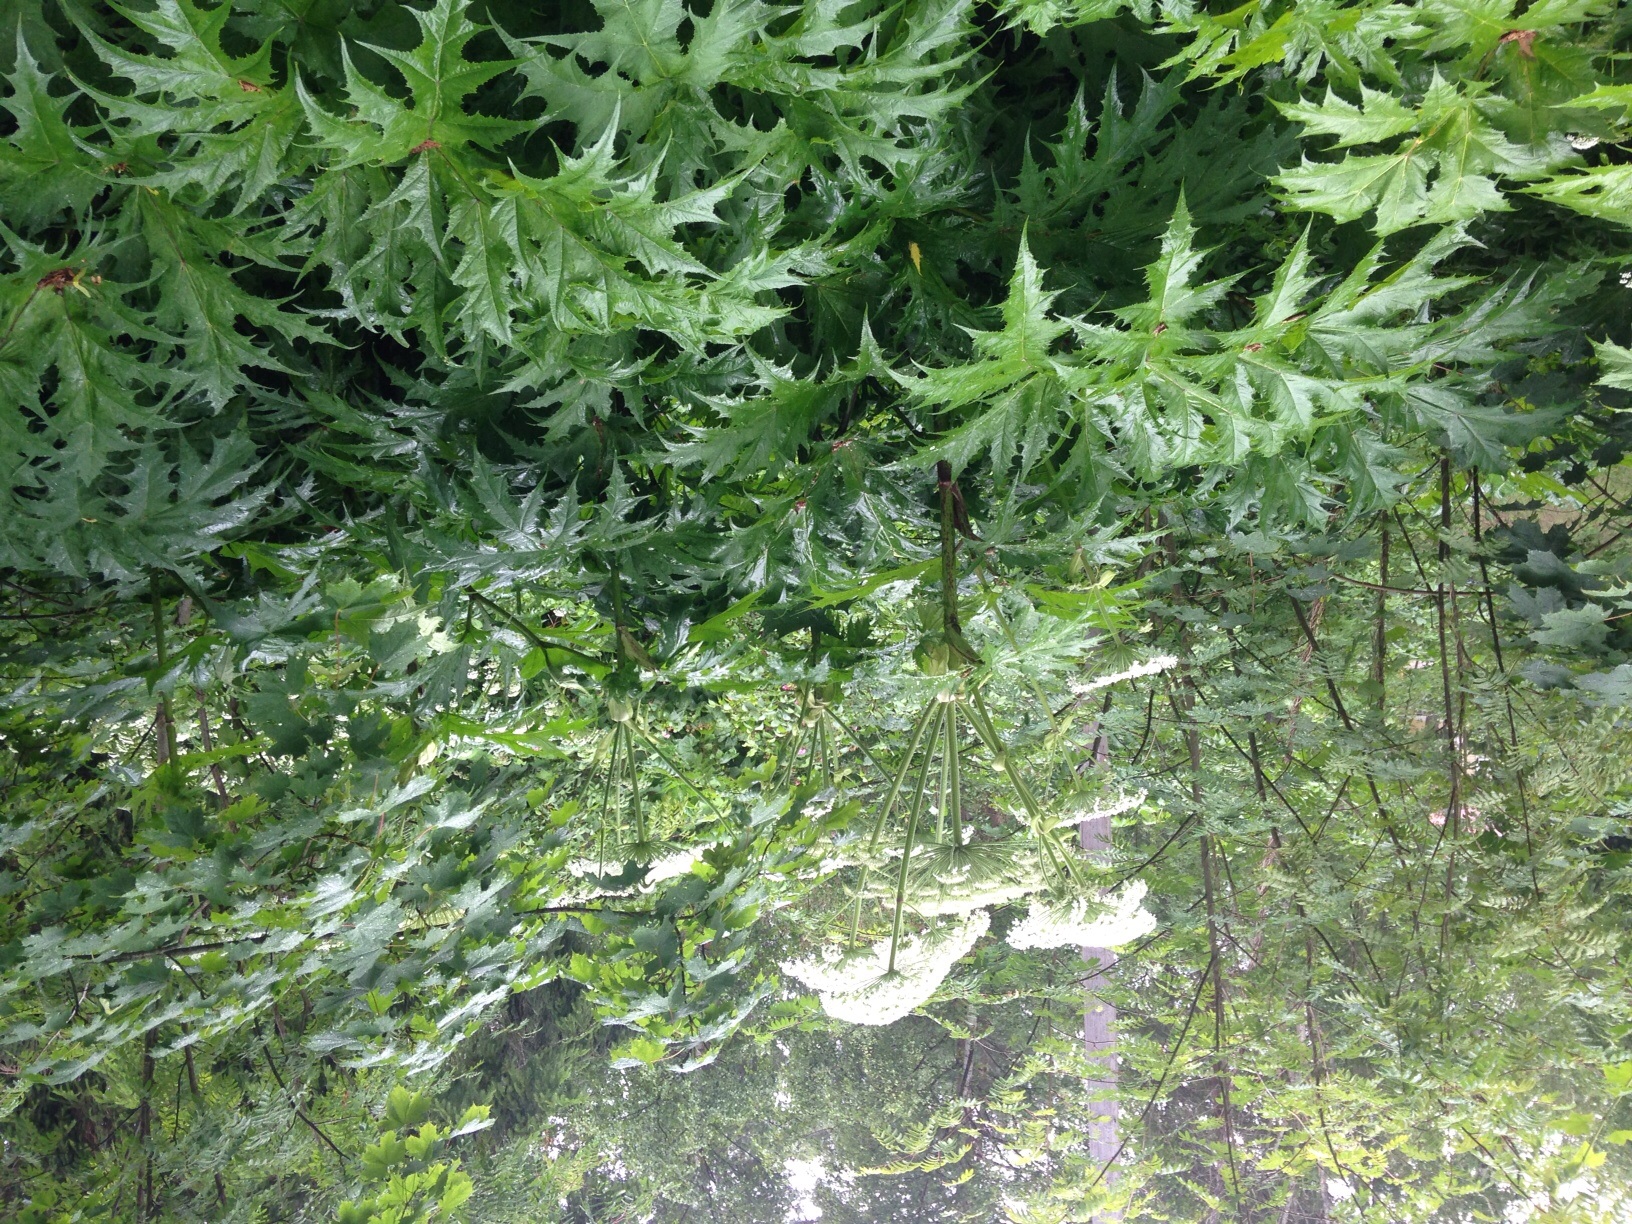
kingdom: Plantae
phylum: Tracheophyta
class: Magnoliopsida
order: Apiales
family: Apiaceae
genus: Heracleum
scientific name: Heracleum
